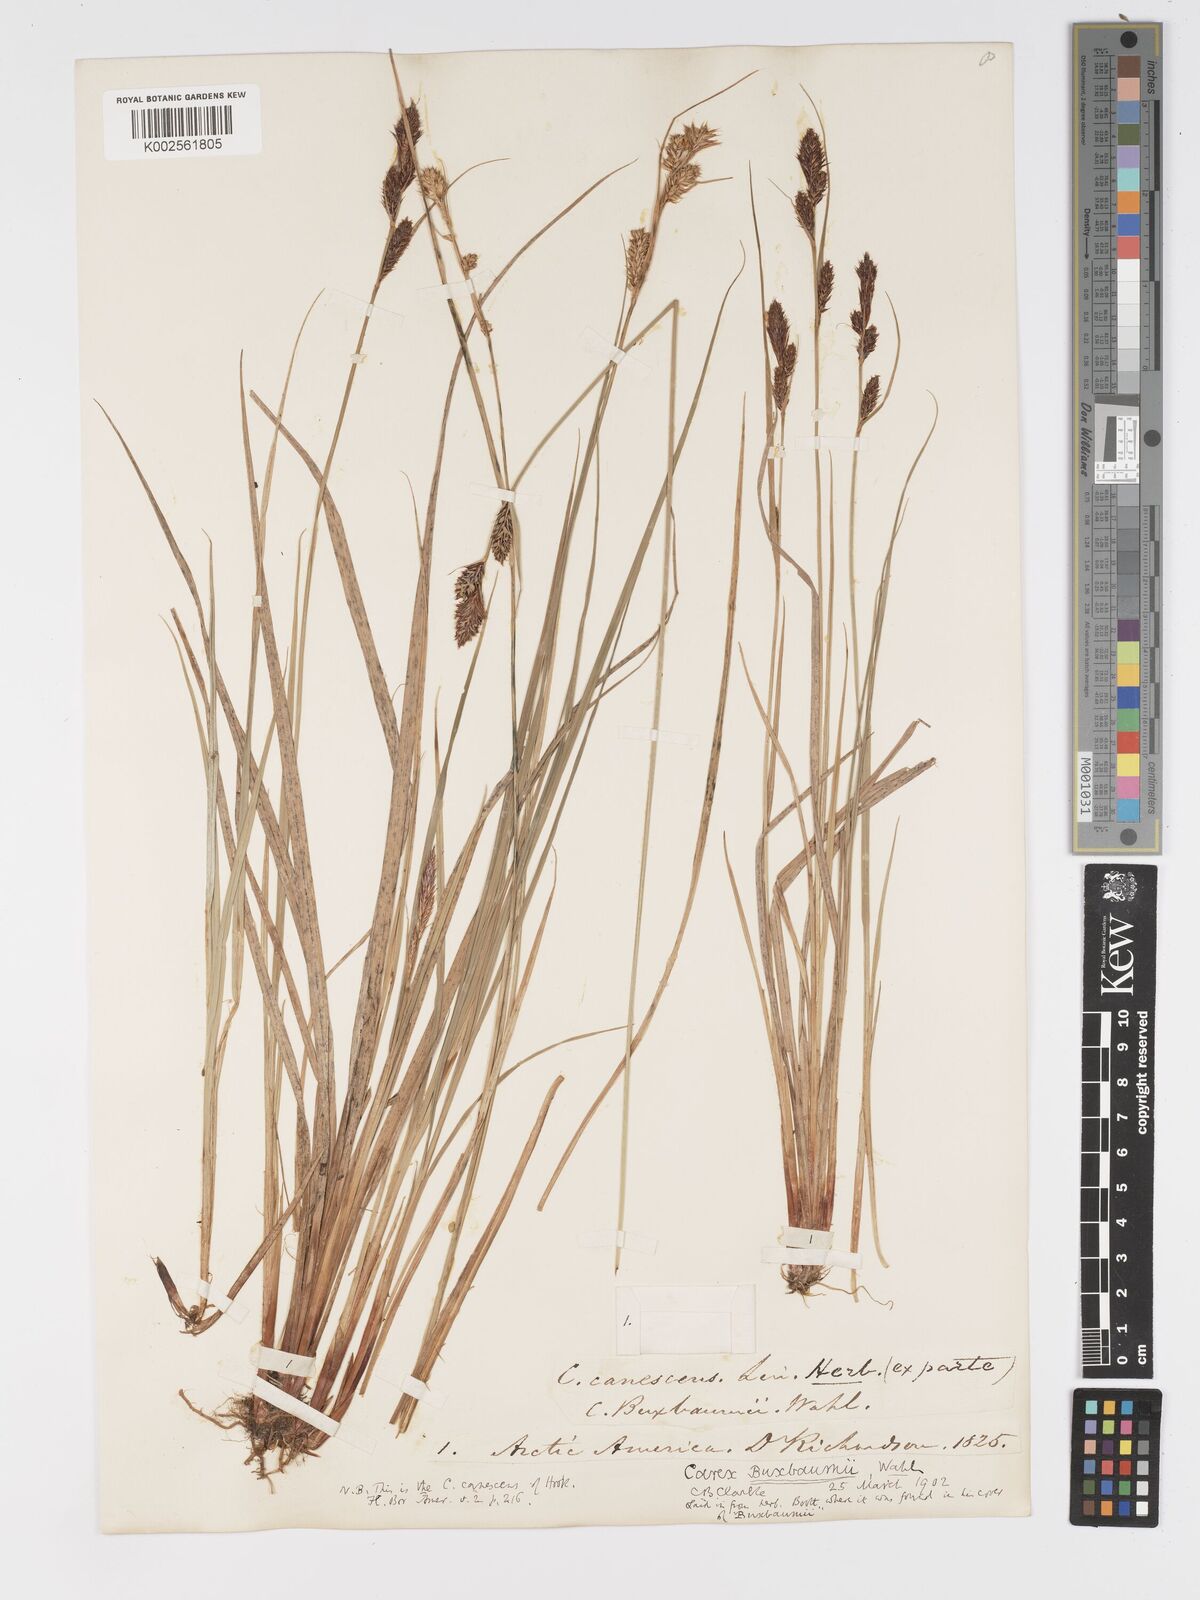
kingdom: Plantae
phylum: Tracheophyta
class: Liliopsida
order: Poales
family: Cyperaceae
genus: Carex
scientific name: Carex buxbaumii
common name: Club sedge
